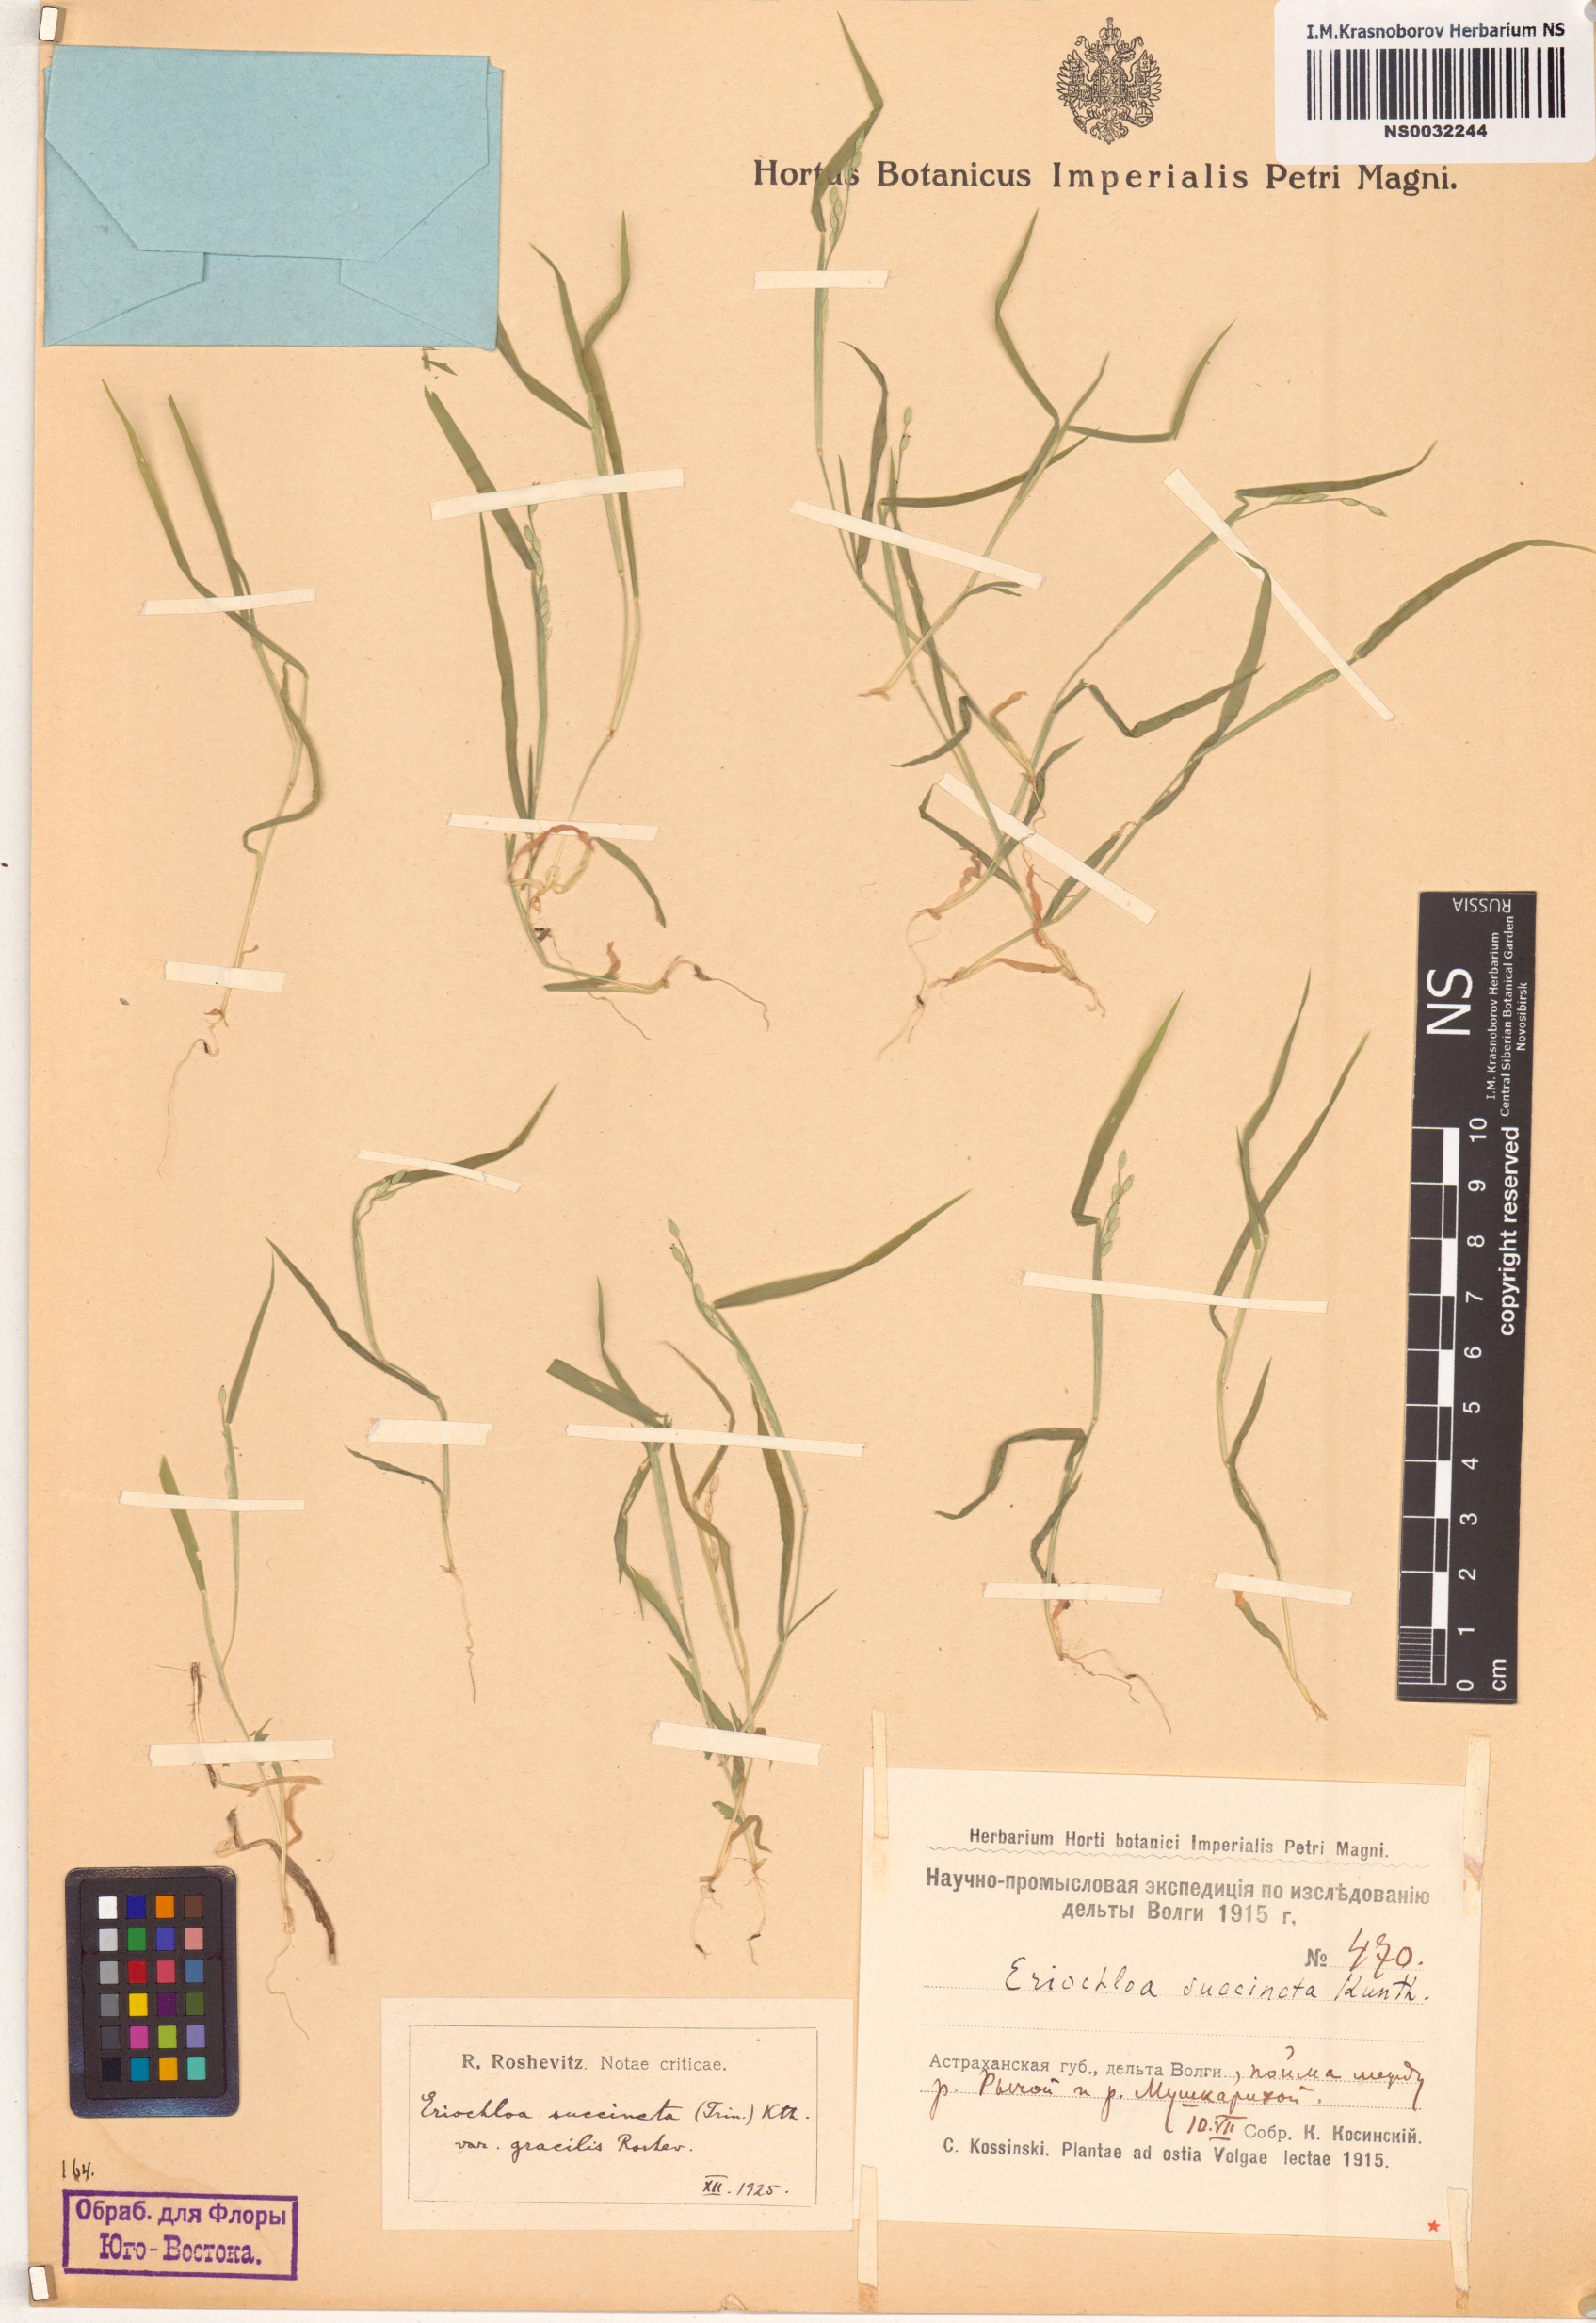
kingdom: Plantae
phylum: Tracheophyta
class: Liliopsida
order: Poales
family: Poaceae
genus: Eriochloa
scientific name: Eriochloa succincta
